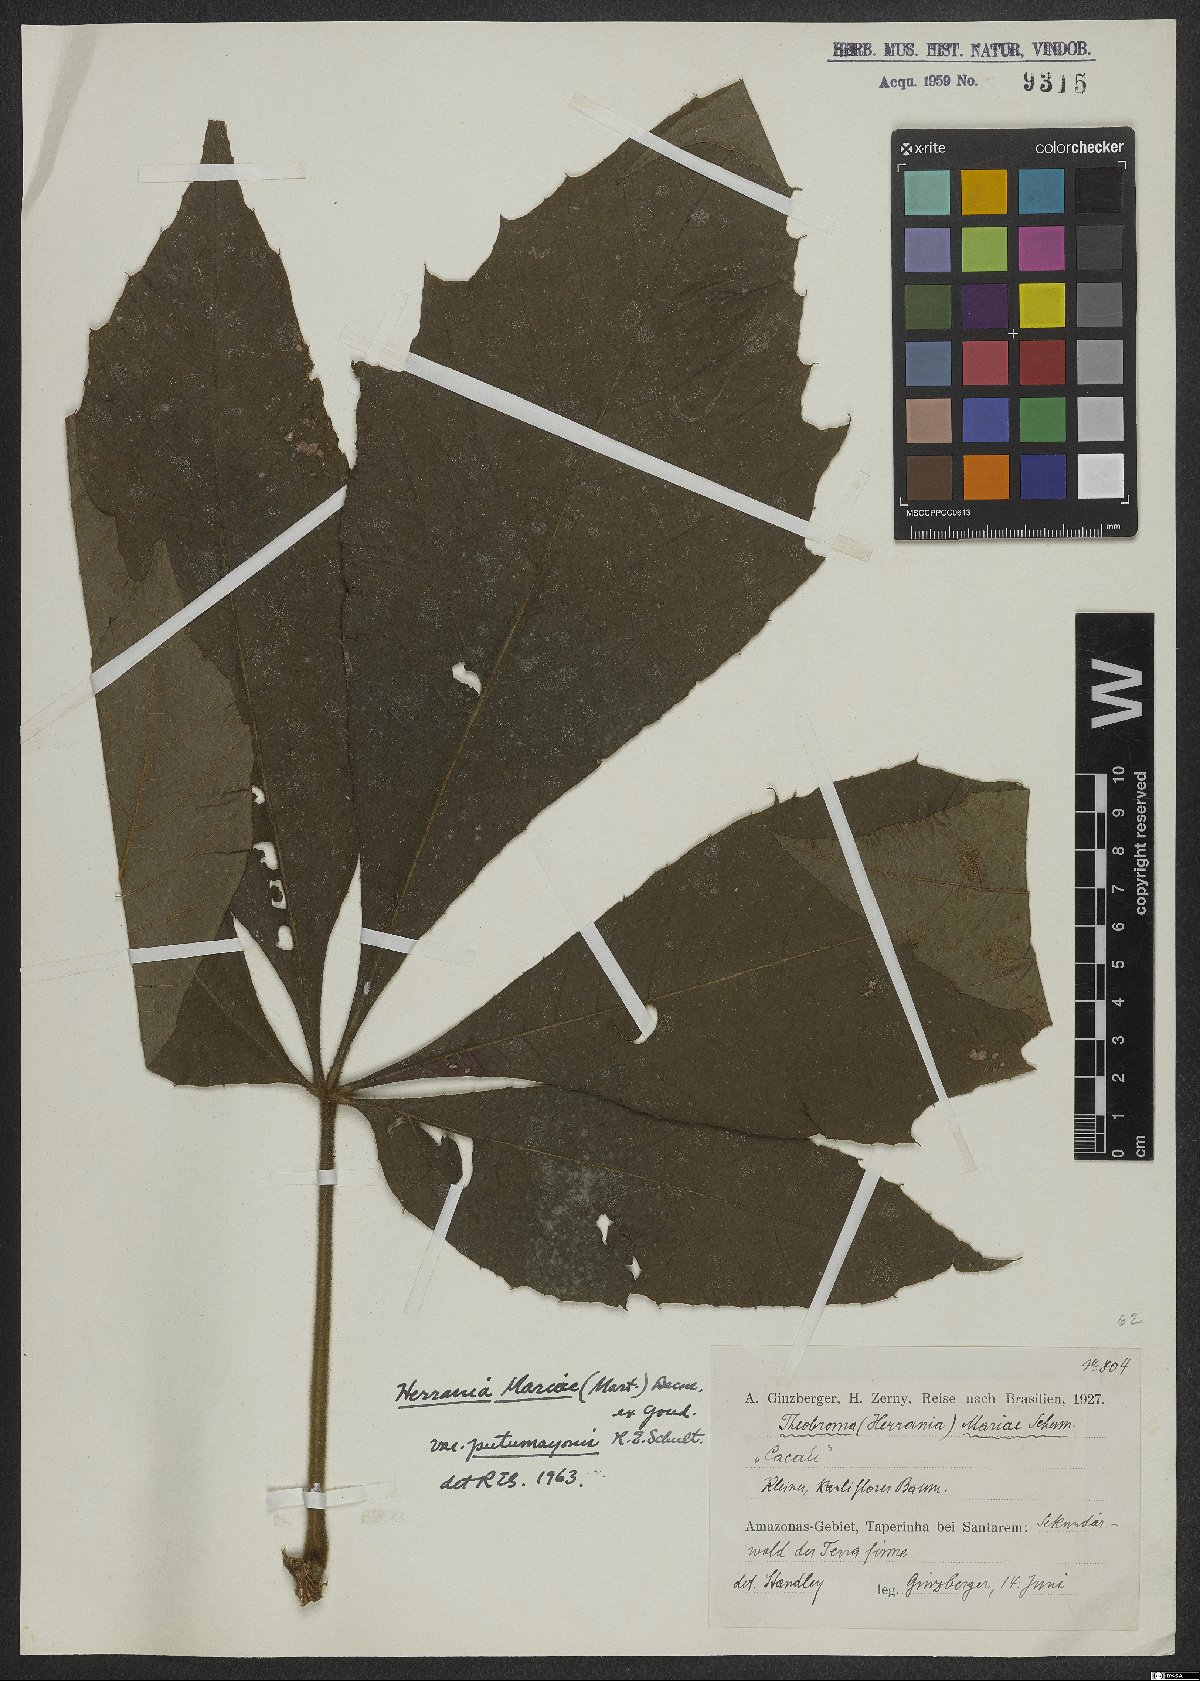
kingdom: Plantae
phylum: Tracheophyta
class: Magnoliopsida
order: Malvales
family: Malvaceae
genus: Herrania
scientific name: Herrania mariae
